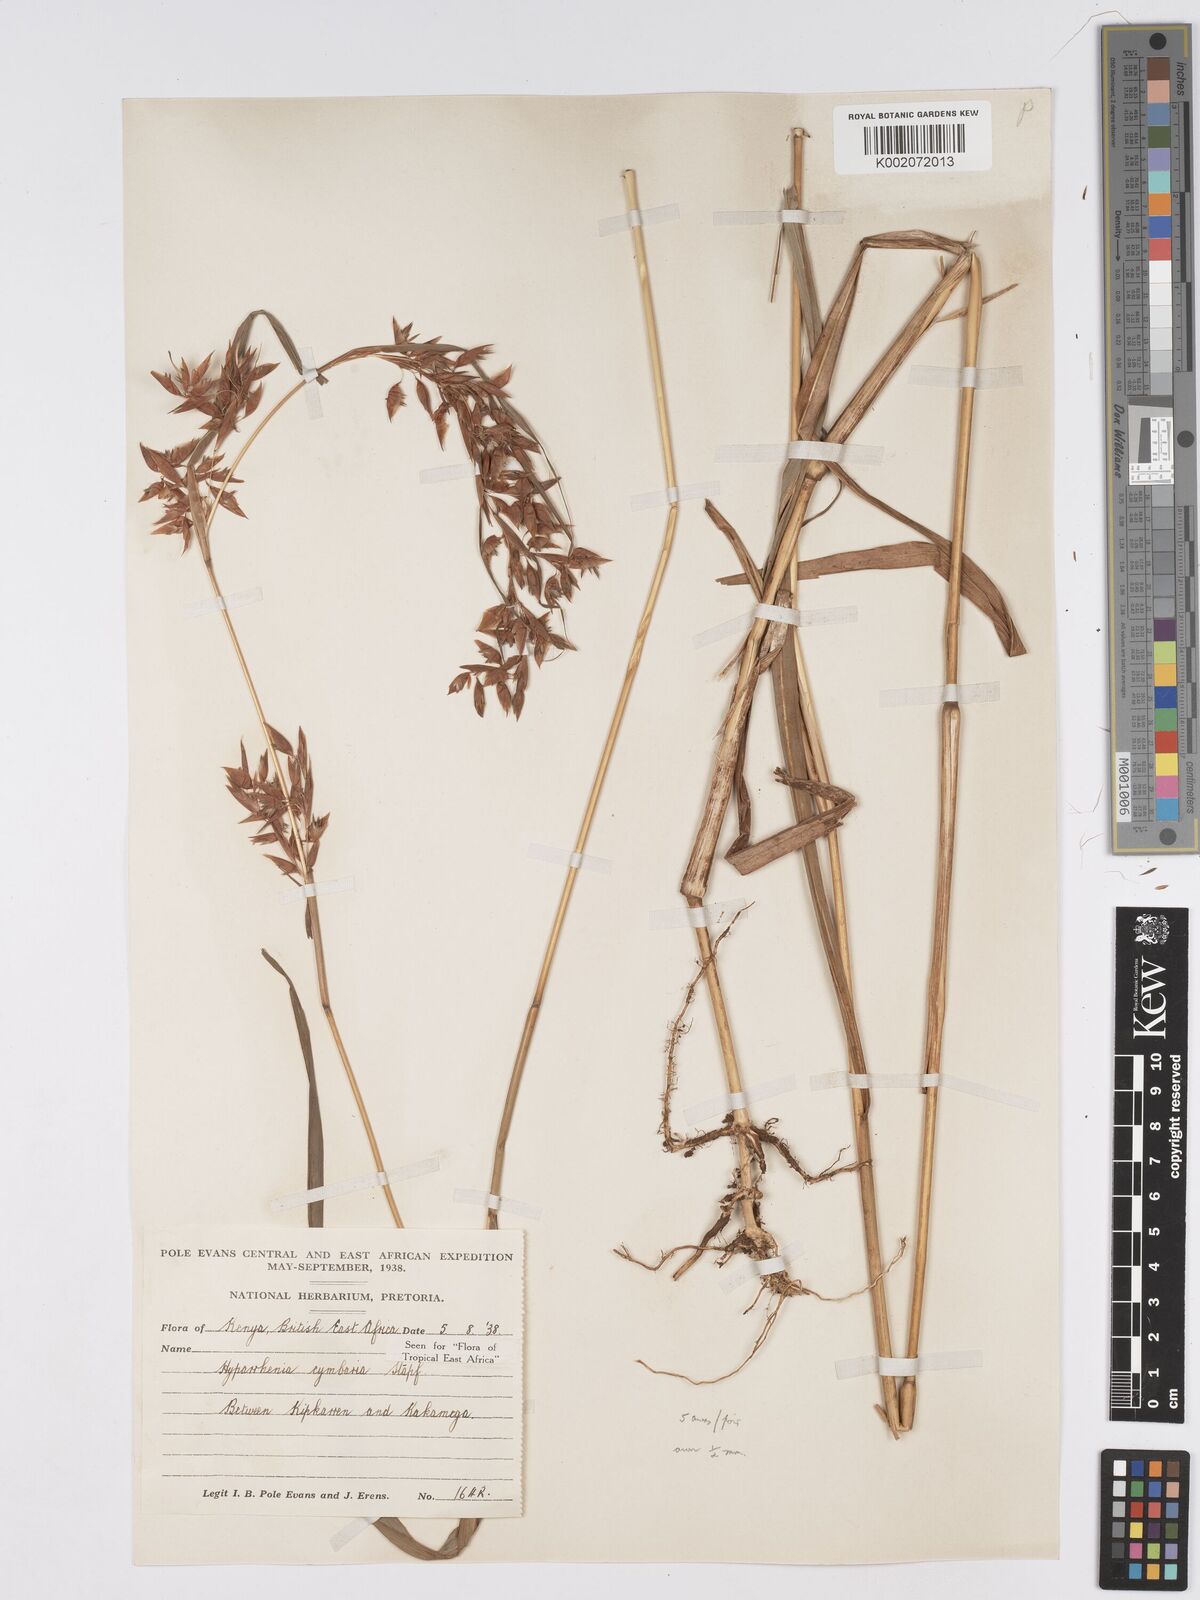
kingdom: Plantae
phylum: Tracheophyta
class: Liliopsida
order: Poales
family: Poaceae
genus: Hyparrhenia
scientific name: Hyparrhenia cymbaria
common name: Boat thatching grass
